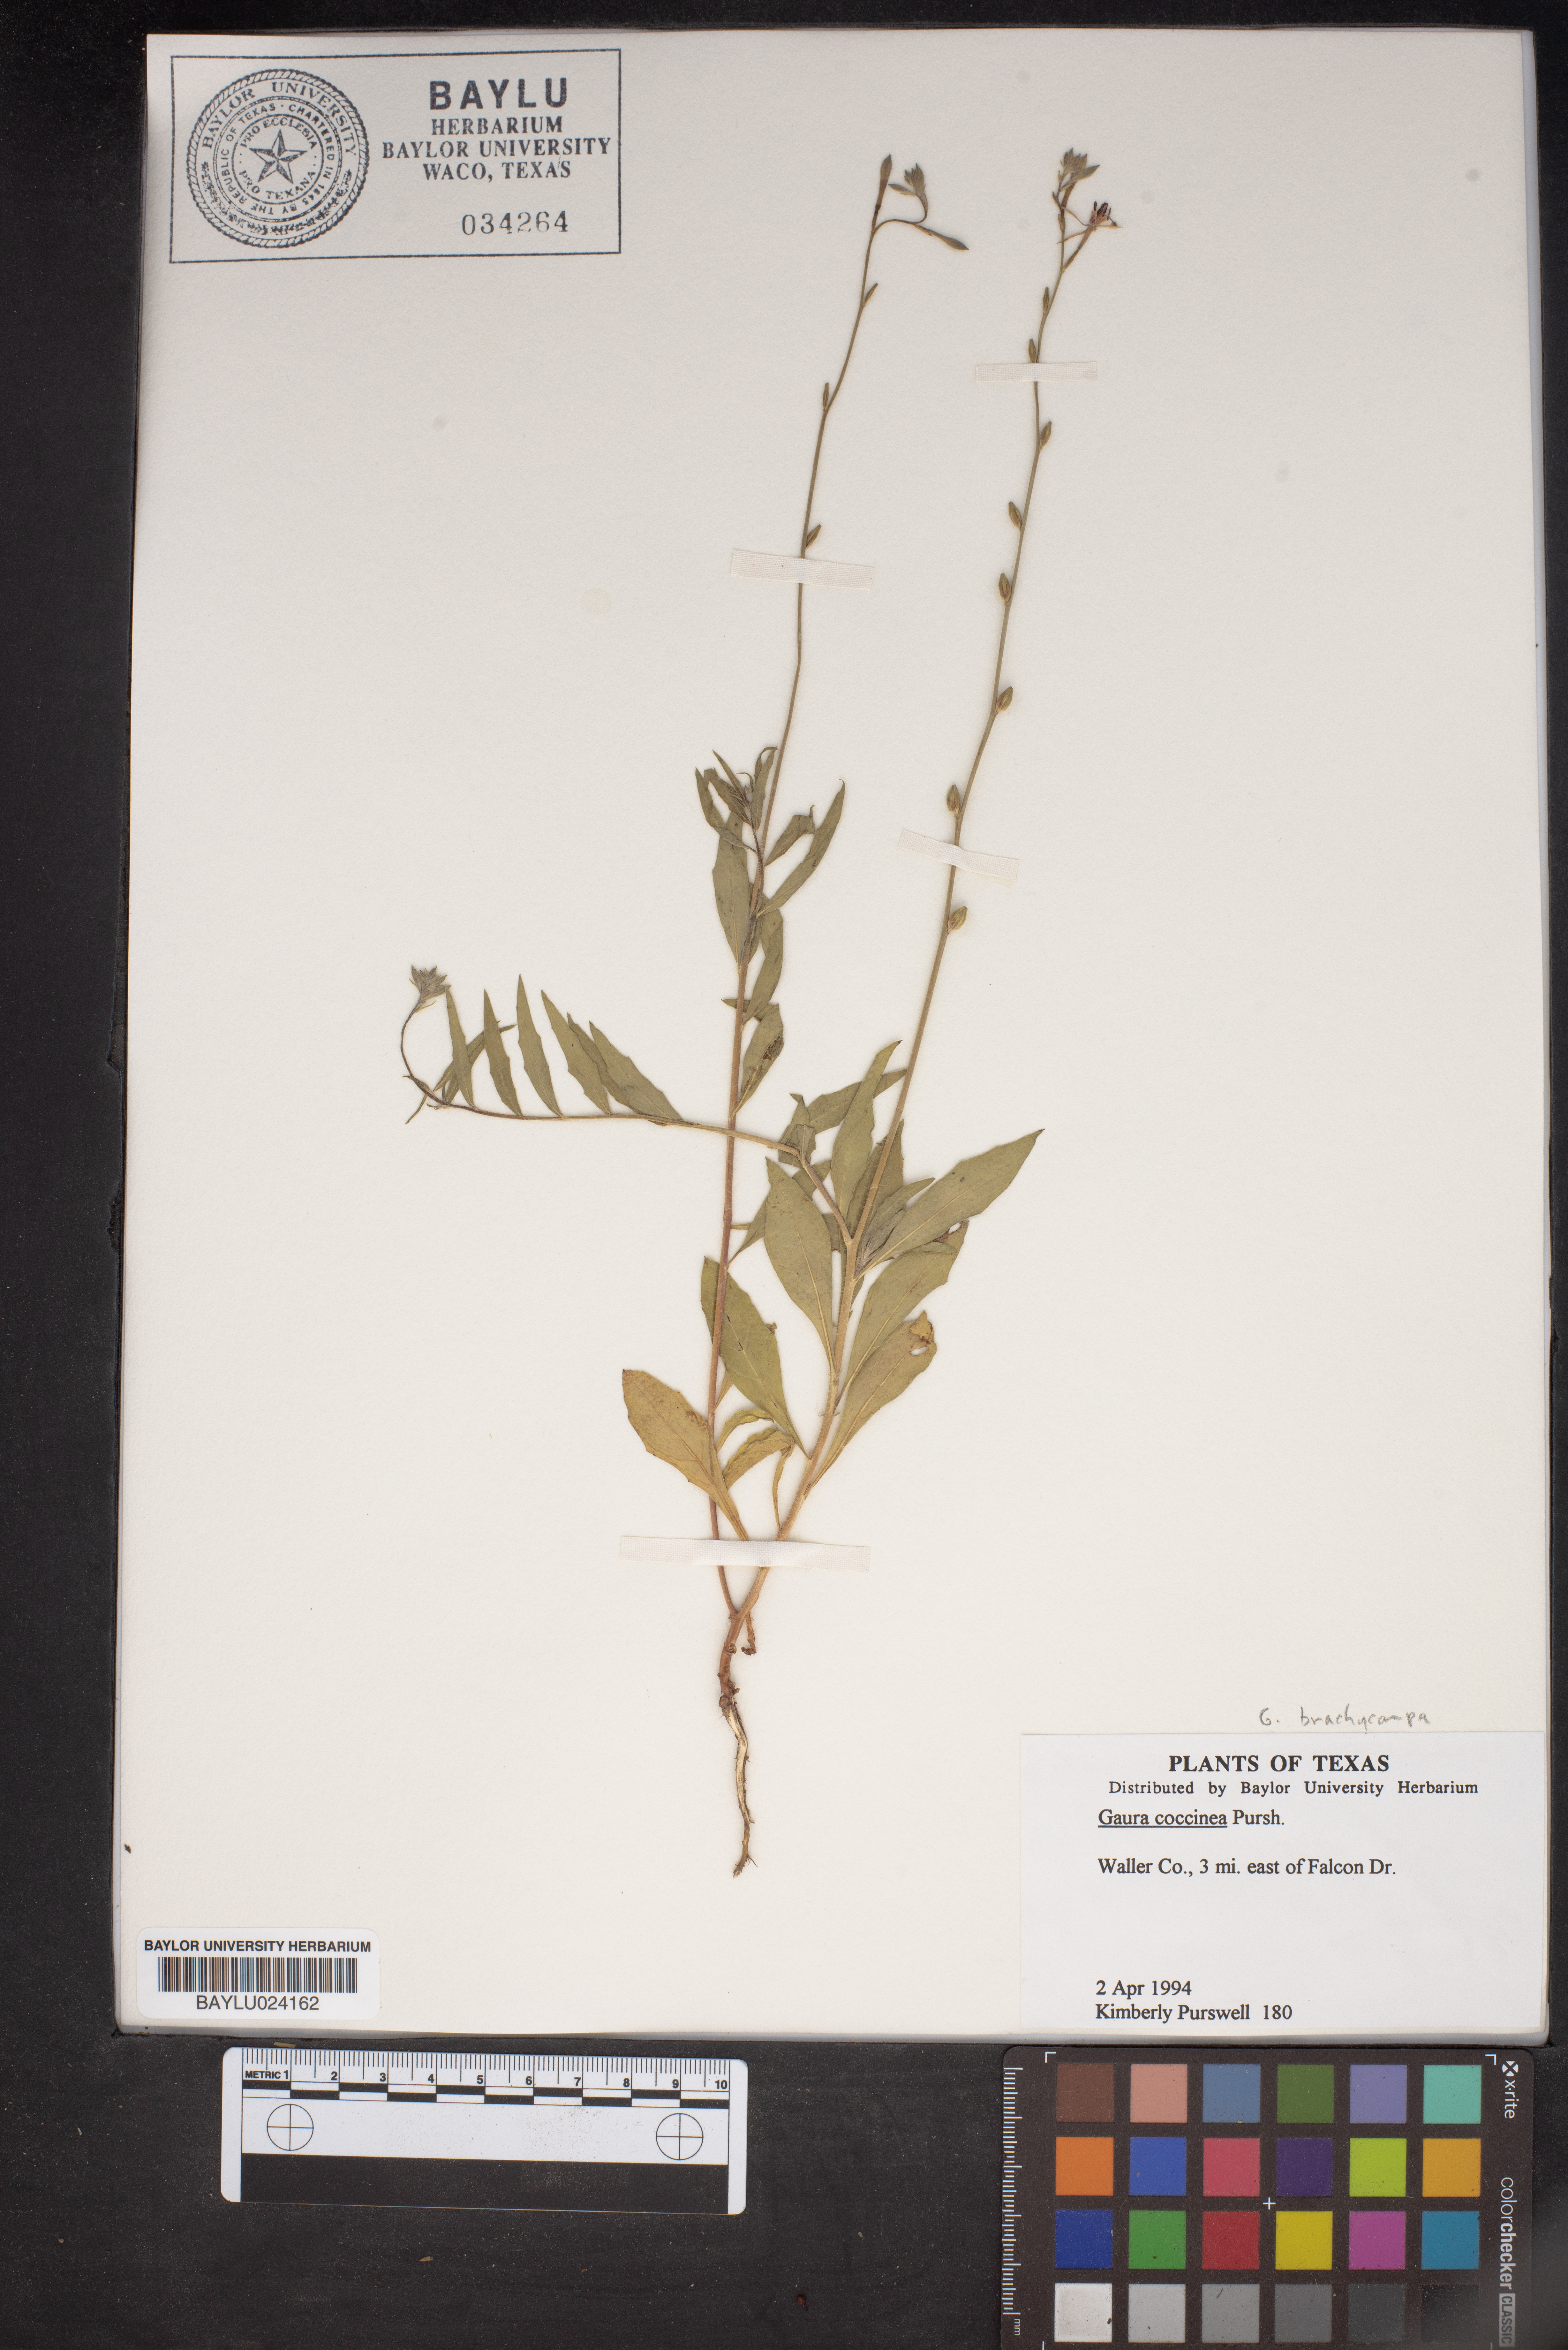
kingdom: Plantae
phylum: Tracheophyta
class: Magnoliopsida
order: Myrtales
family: Onagraceae
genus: Oenothera
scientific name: Oenothera suffrutescens
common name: Scarlet beeblossom
